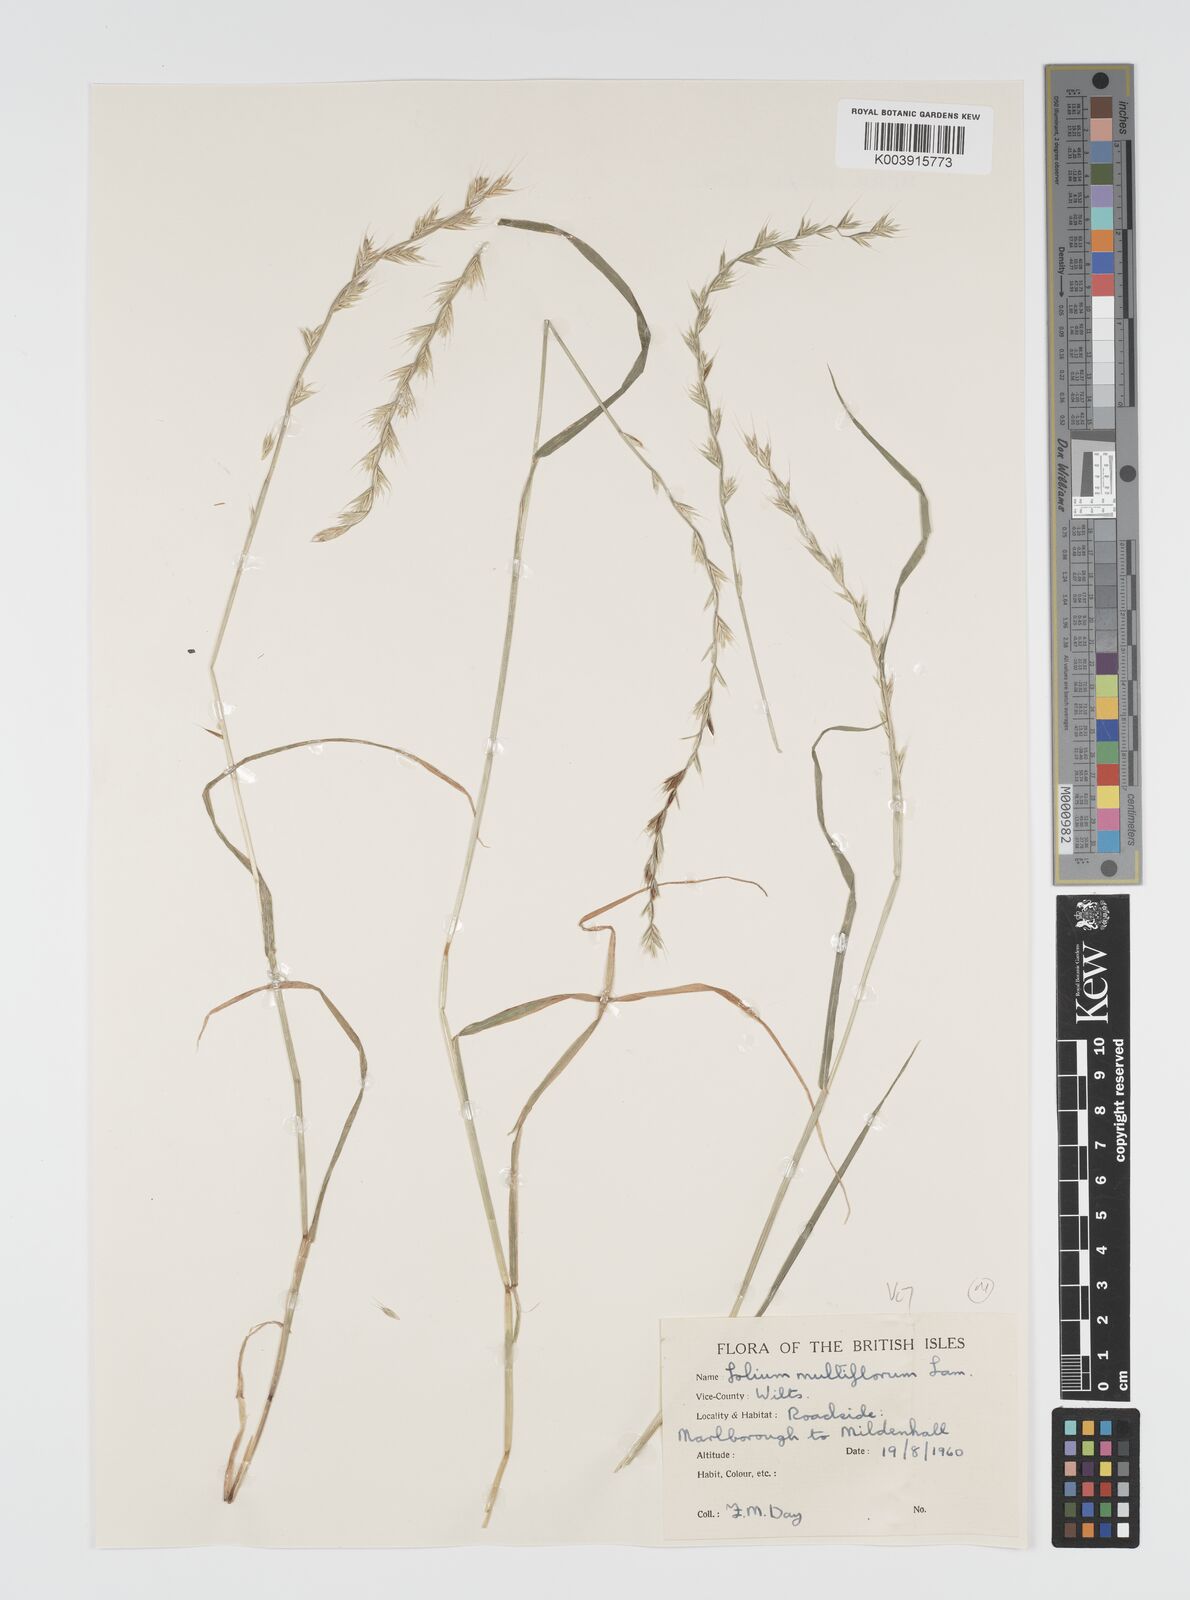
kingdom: Plantae
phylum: Tracheophyta
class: Liliopsida
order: Poales
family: Poaceae
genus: Lolium
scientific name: Lolium multiflorum
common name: Annual ryegrass
